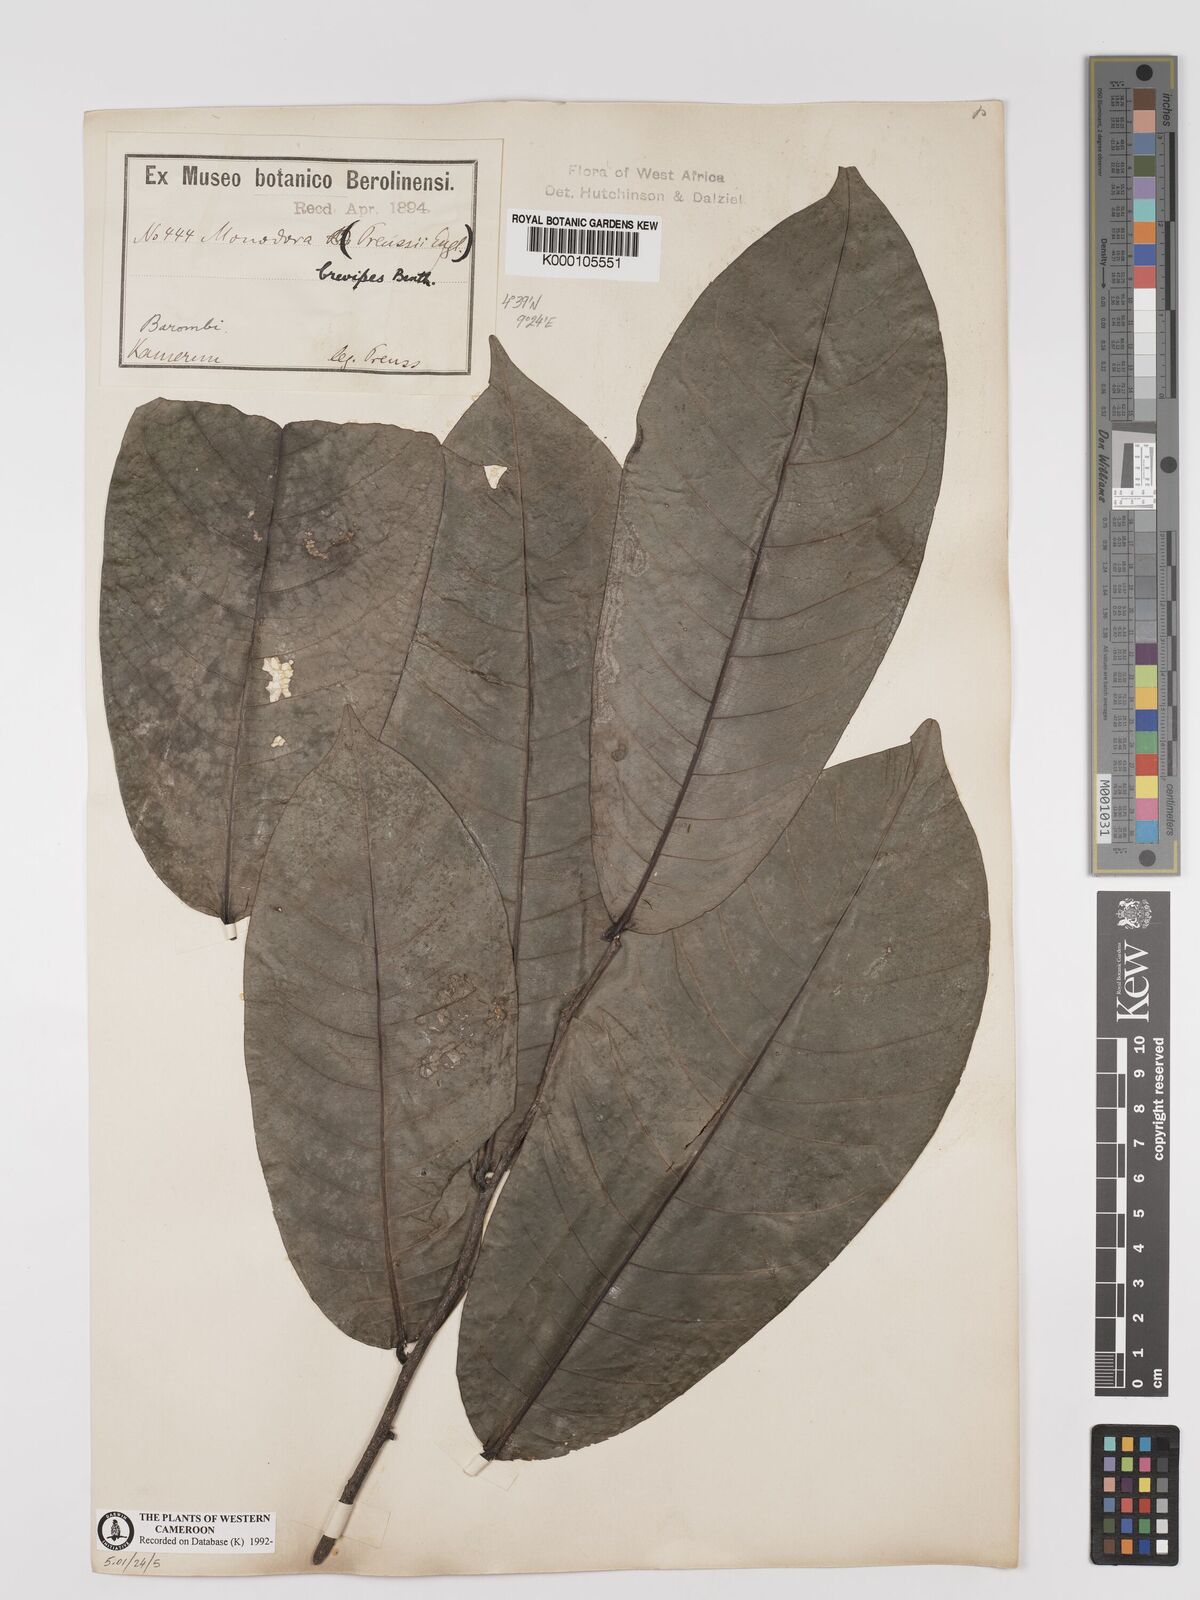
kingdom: Plantae
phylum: Tracheophyta
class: Magnoliopsida
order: Magnoliales
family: Annonaceae
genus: Monodora
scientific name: Monodora undulata
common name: Yellow-flower-nutmeg
